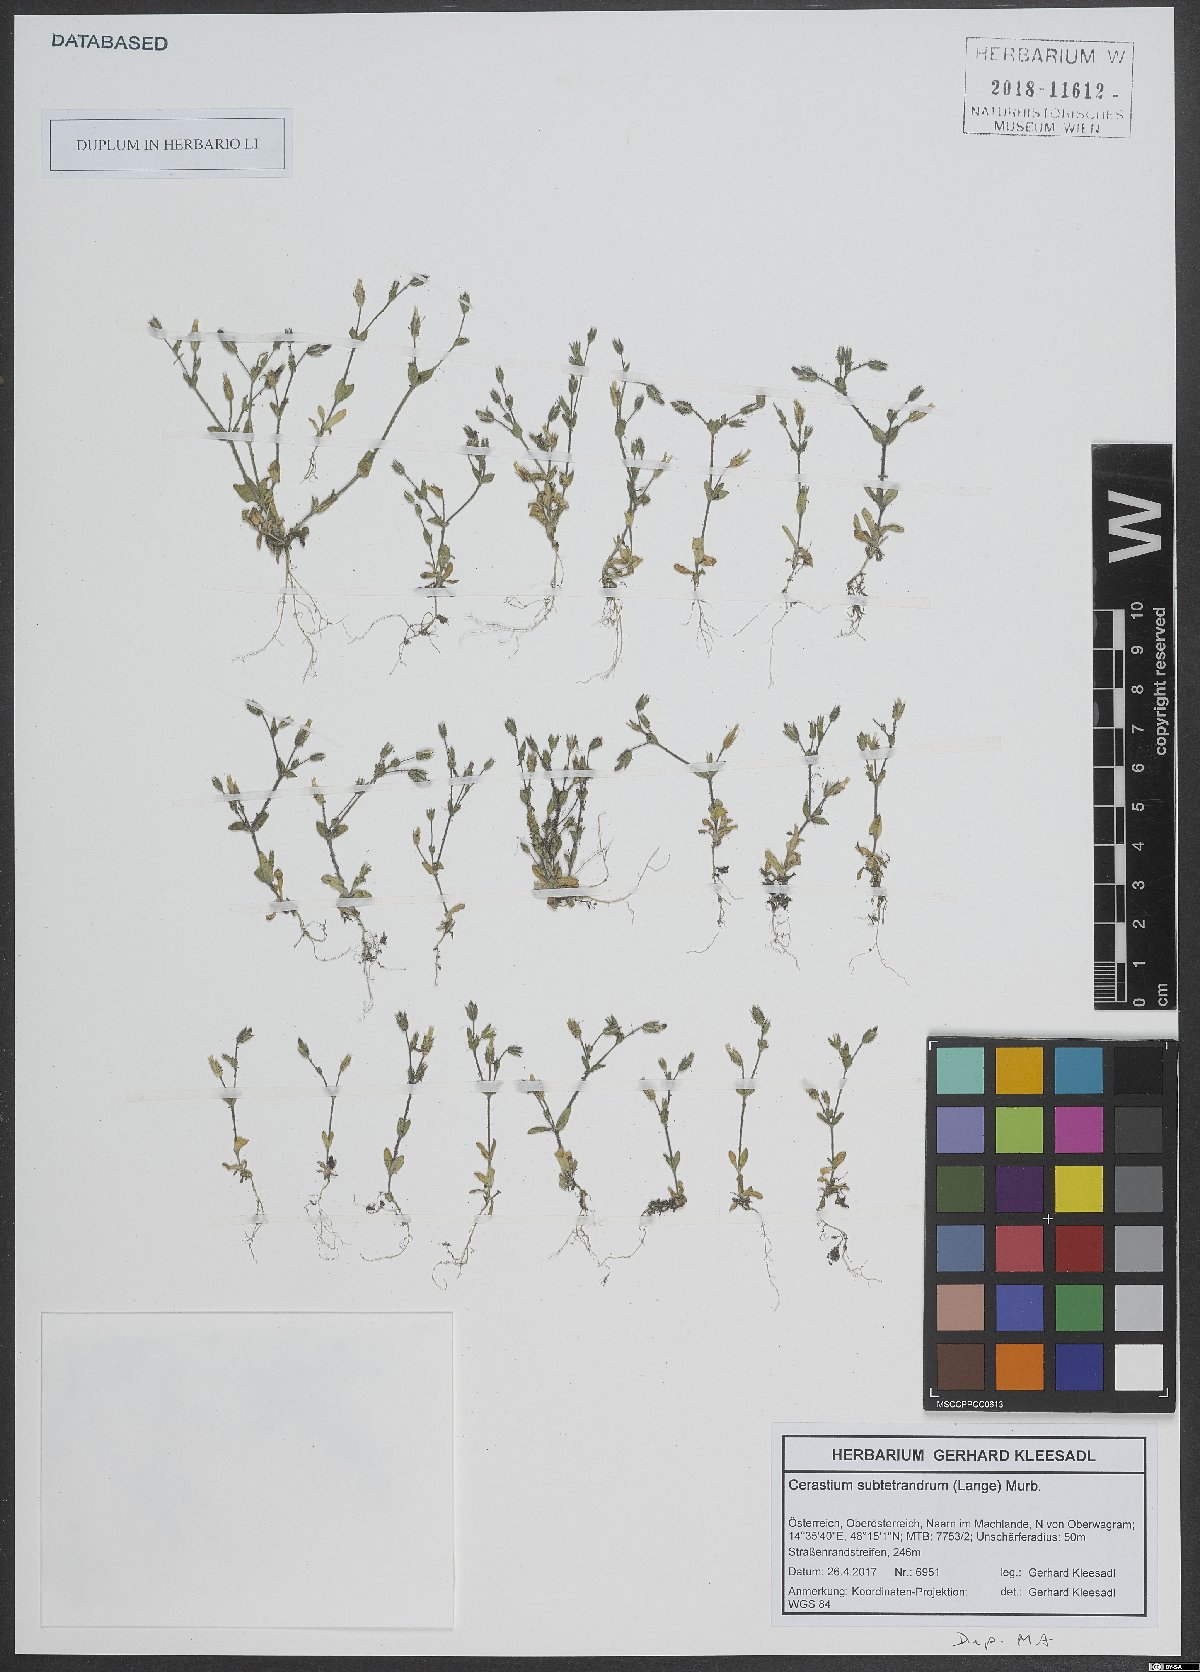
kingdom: Plantae
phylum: Tracheophyta
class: Magnoliopsida
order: Caryophyllales
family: Caryophyllaceae
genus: Cerastium
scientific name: Cerastium pumilum
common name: Dwarf mouse-ear
